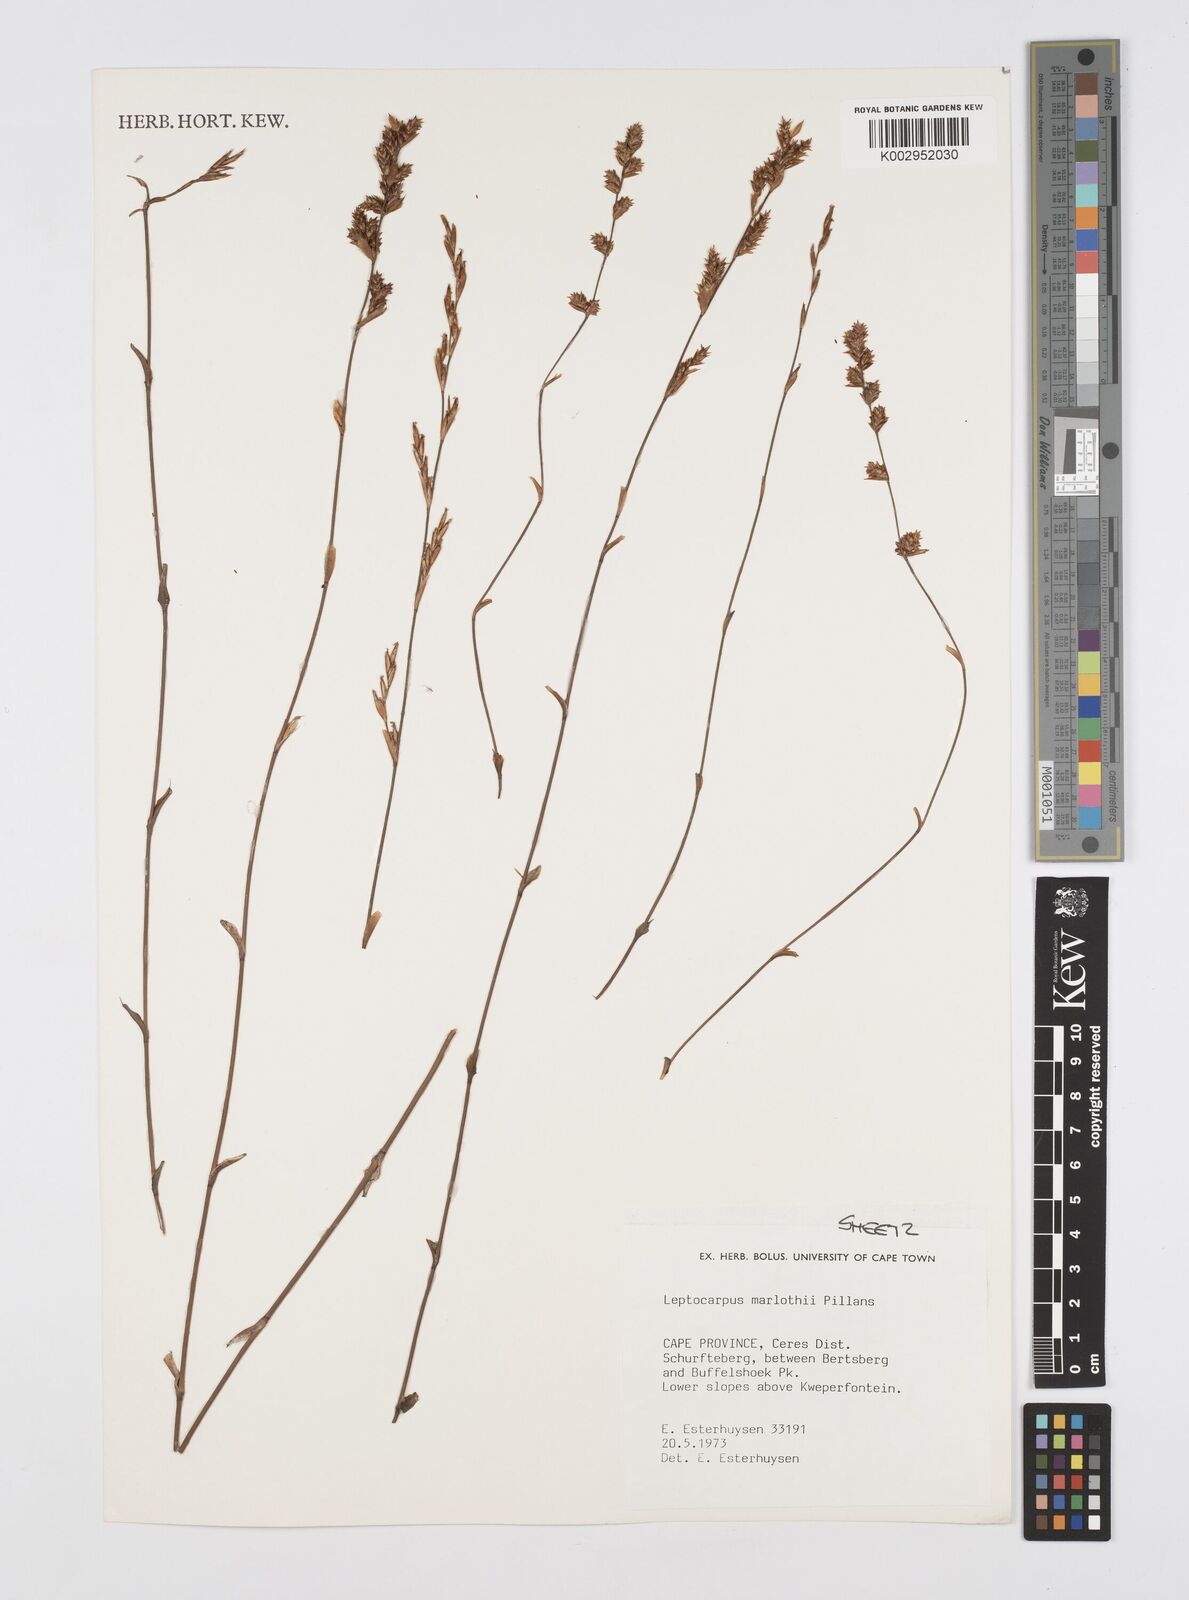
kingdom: Plantae
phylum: Tracheophyta
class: Liliopsida
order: Poales
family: Restionaceae
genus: Restio
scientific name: Restio marlothii
